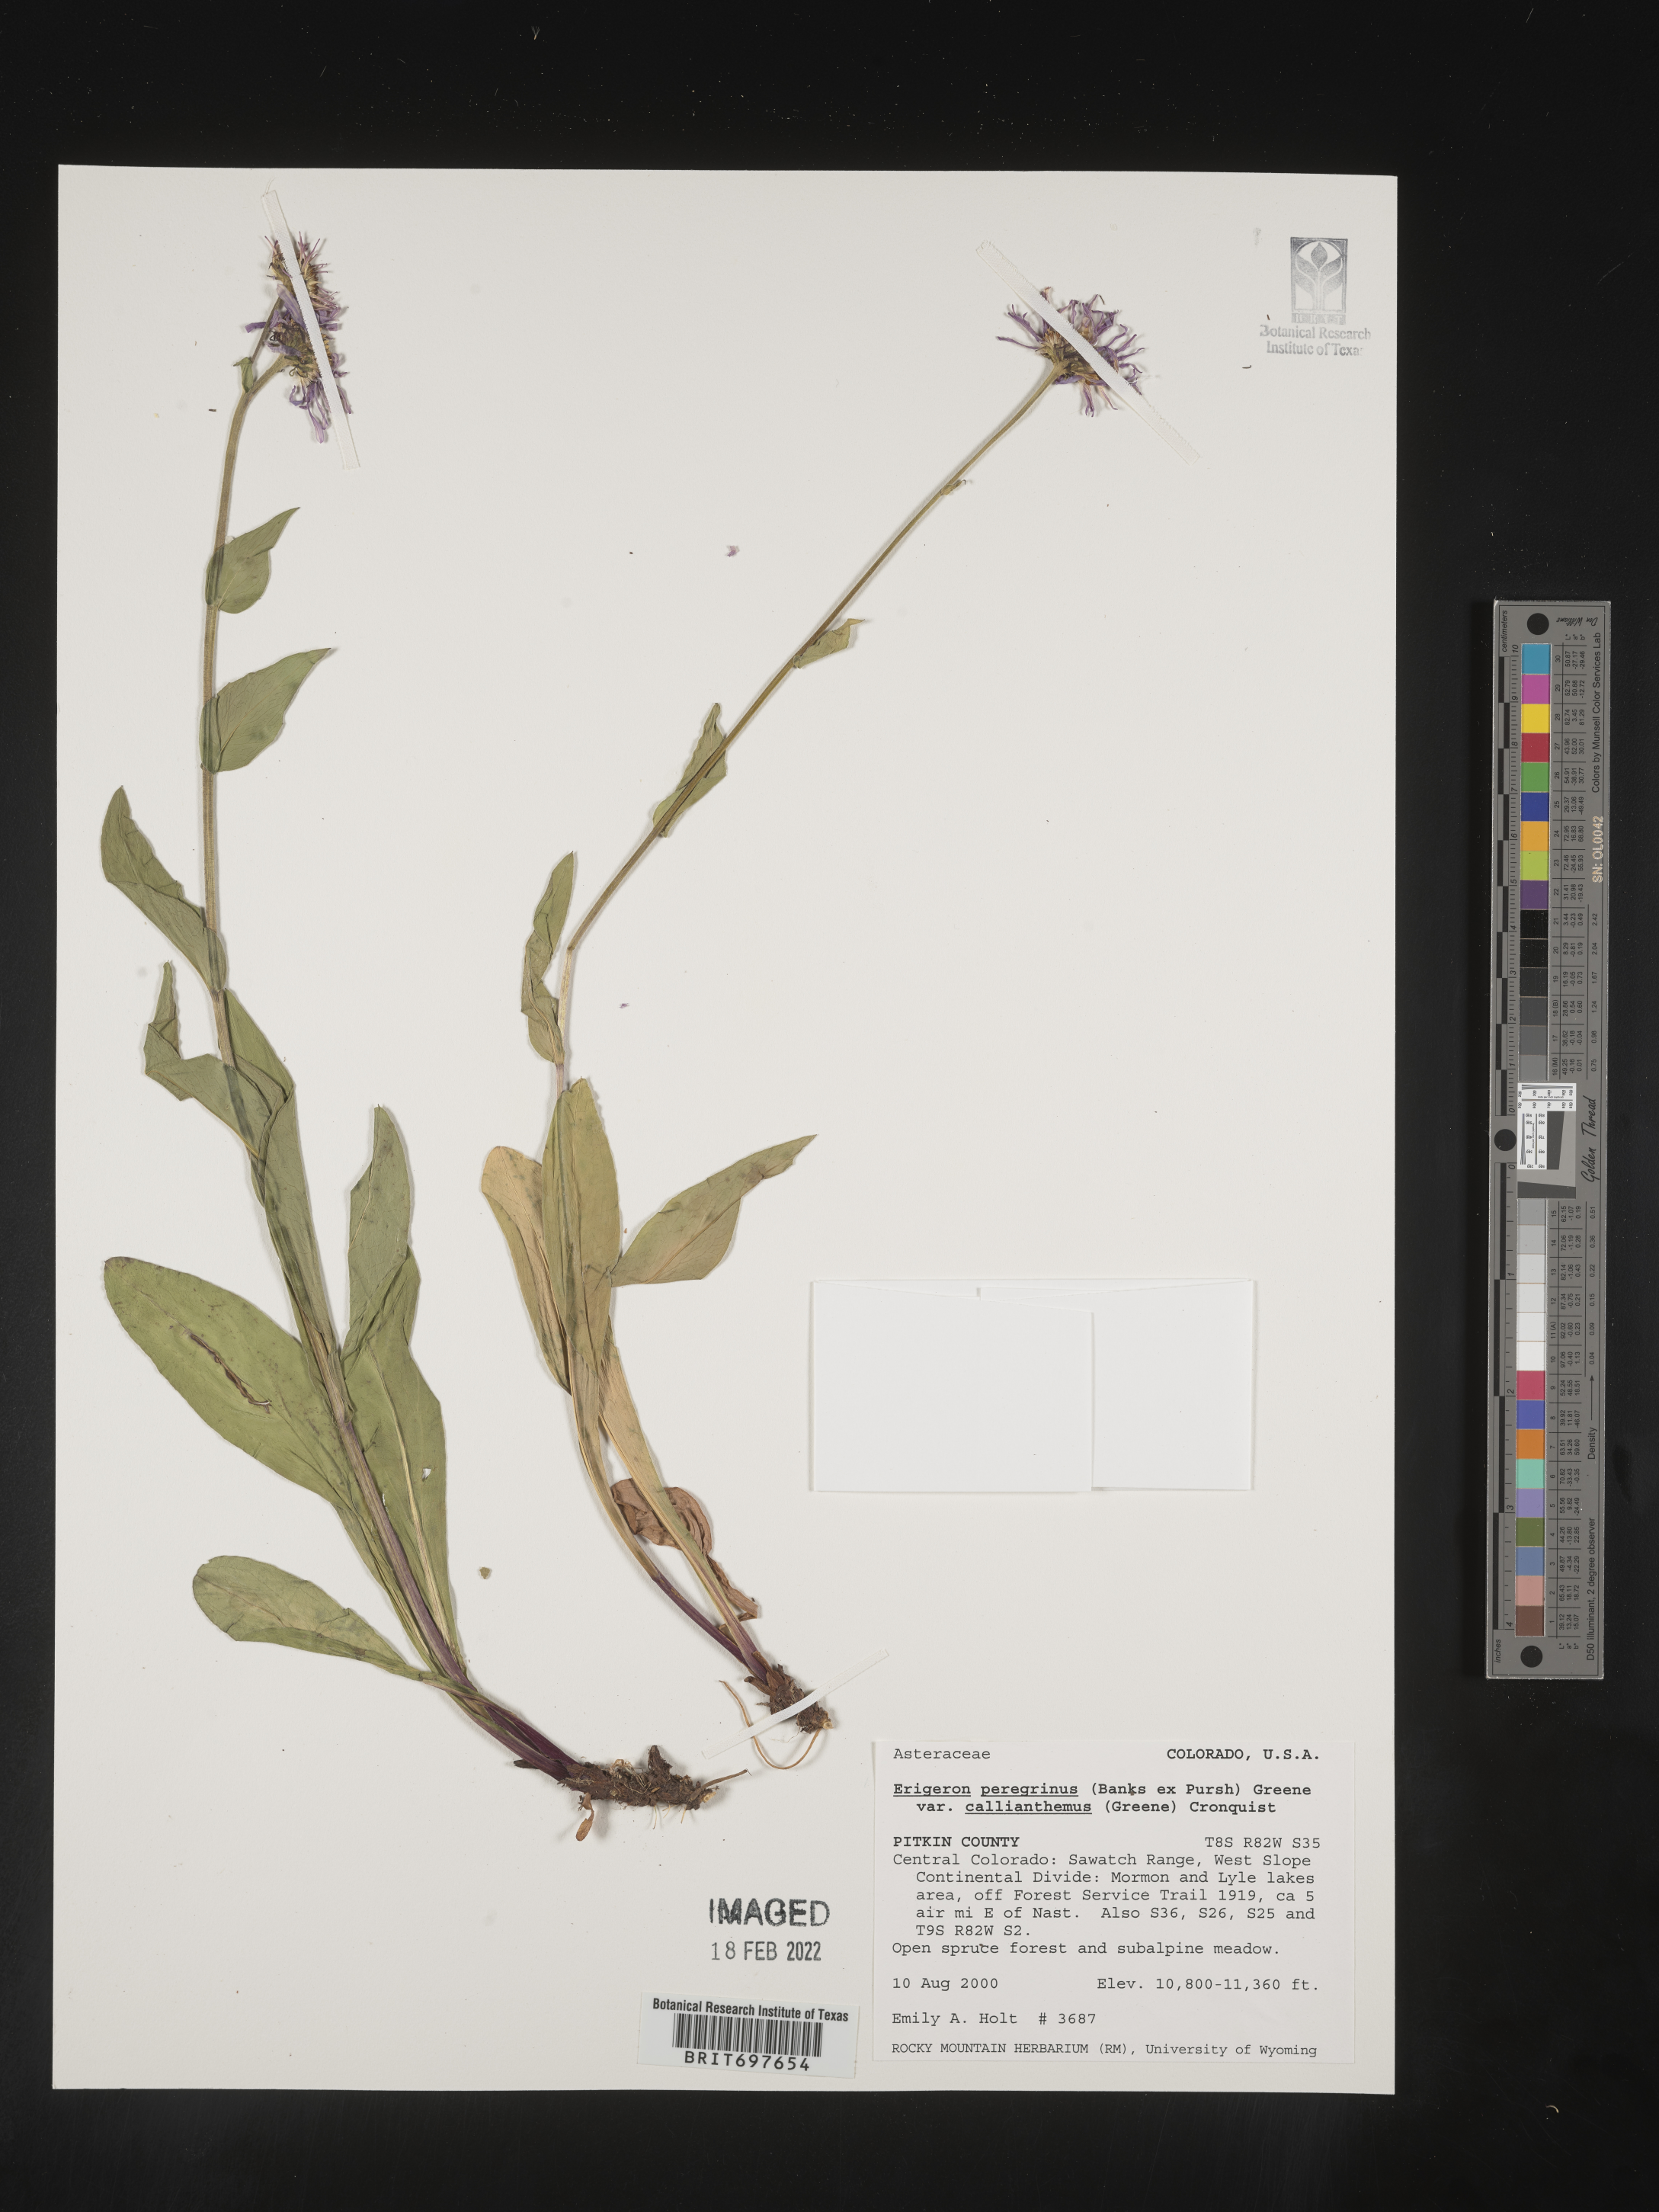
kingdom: Plantae
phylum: Tracheophyta
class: Magnoliopsida
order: Asterales
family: Asteraceae
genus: Erigeron
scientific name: Erigeron peregrinus
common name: Peregrine fleabane
